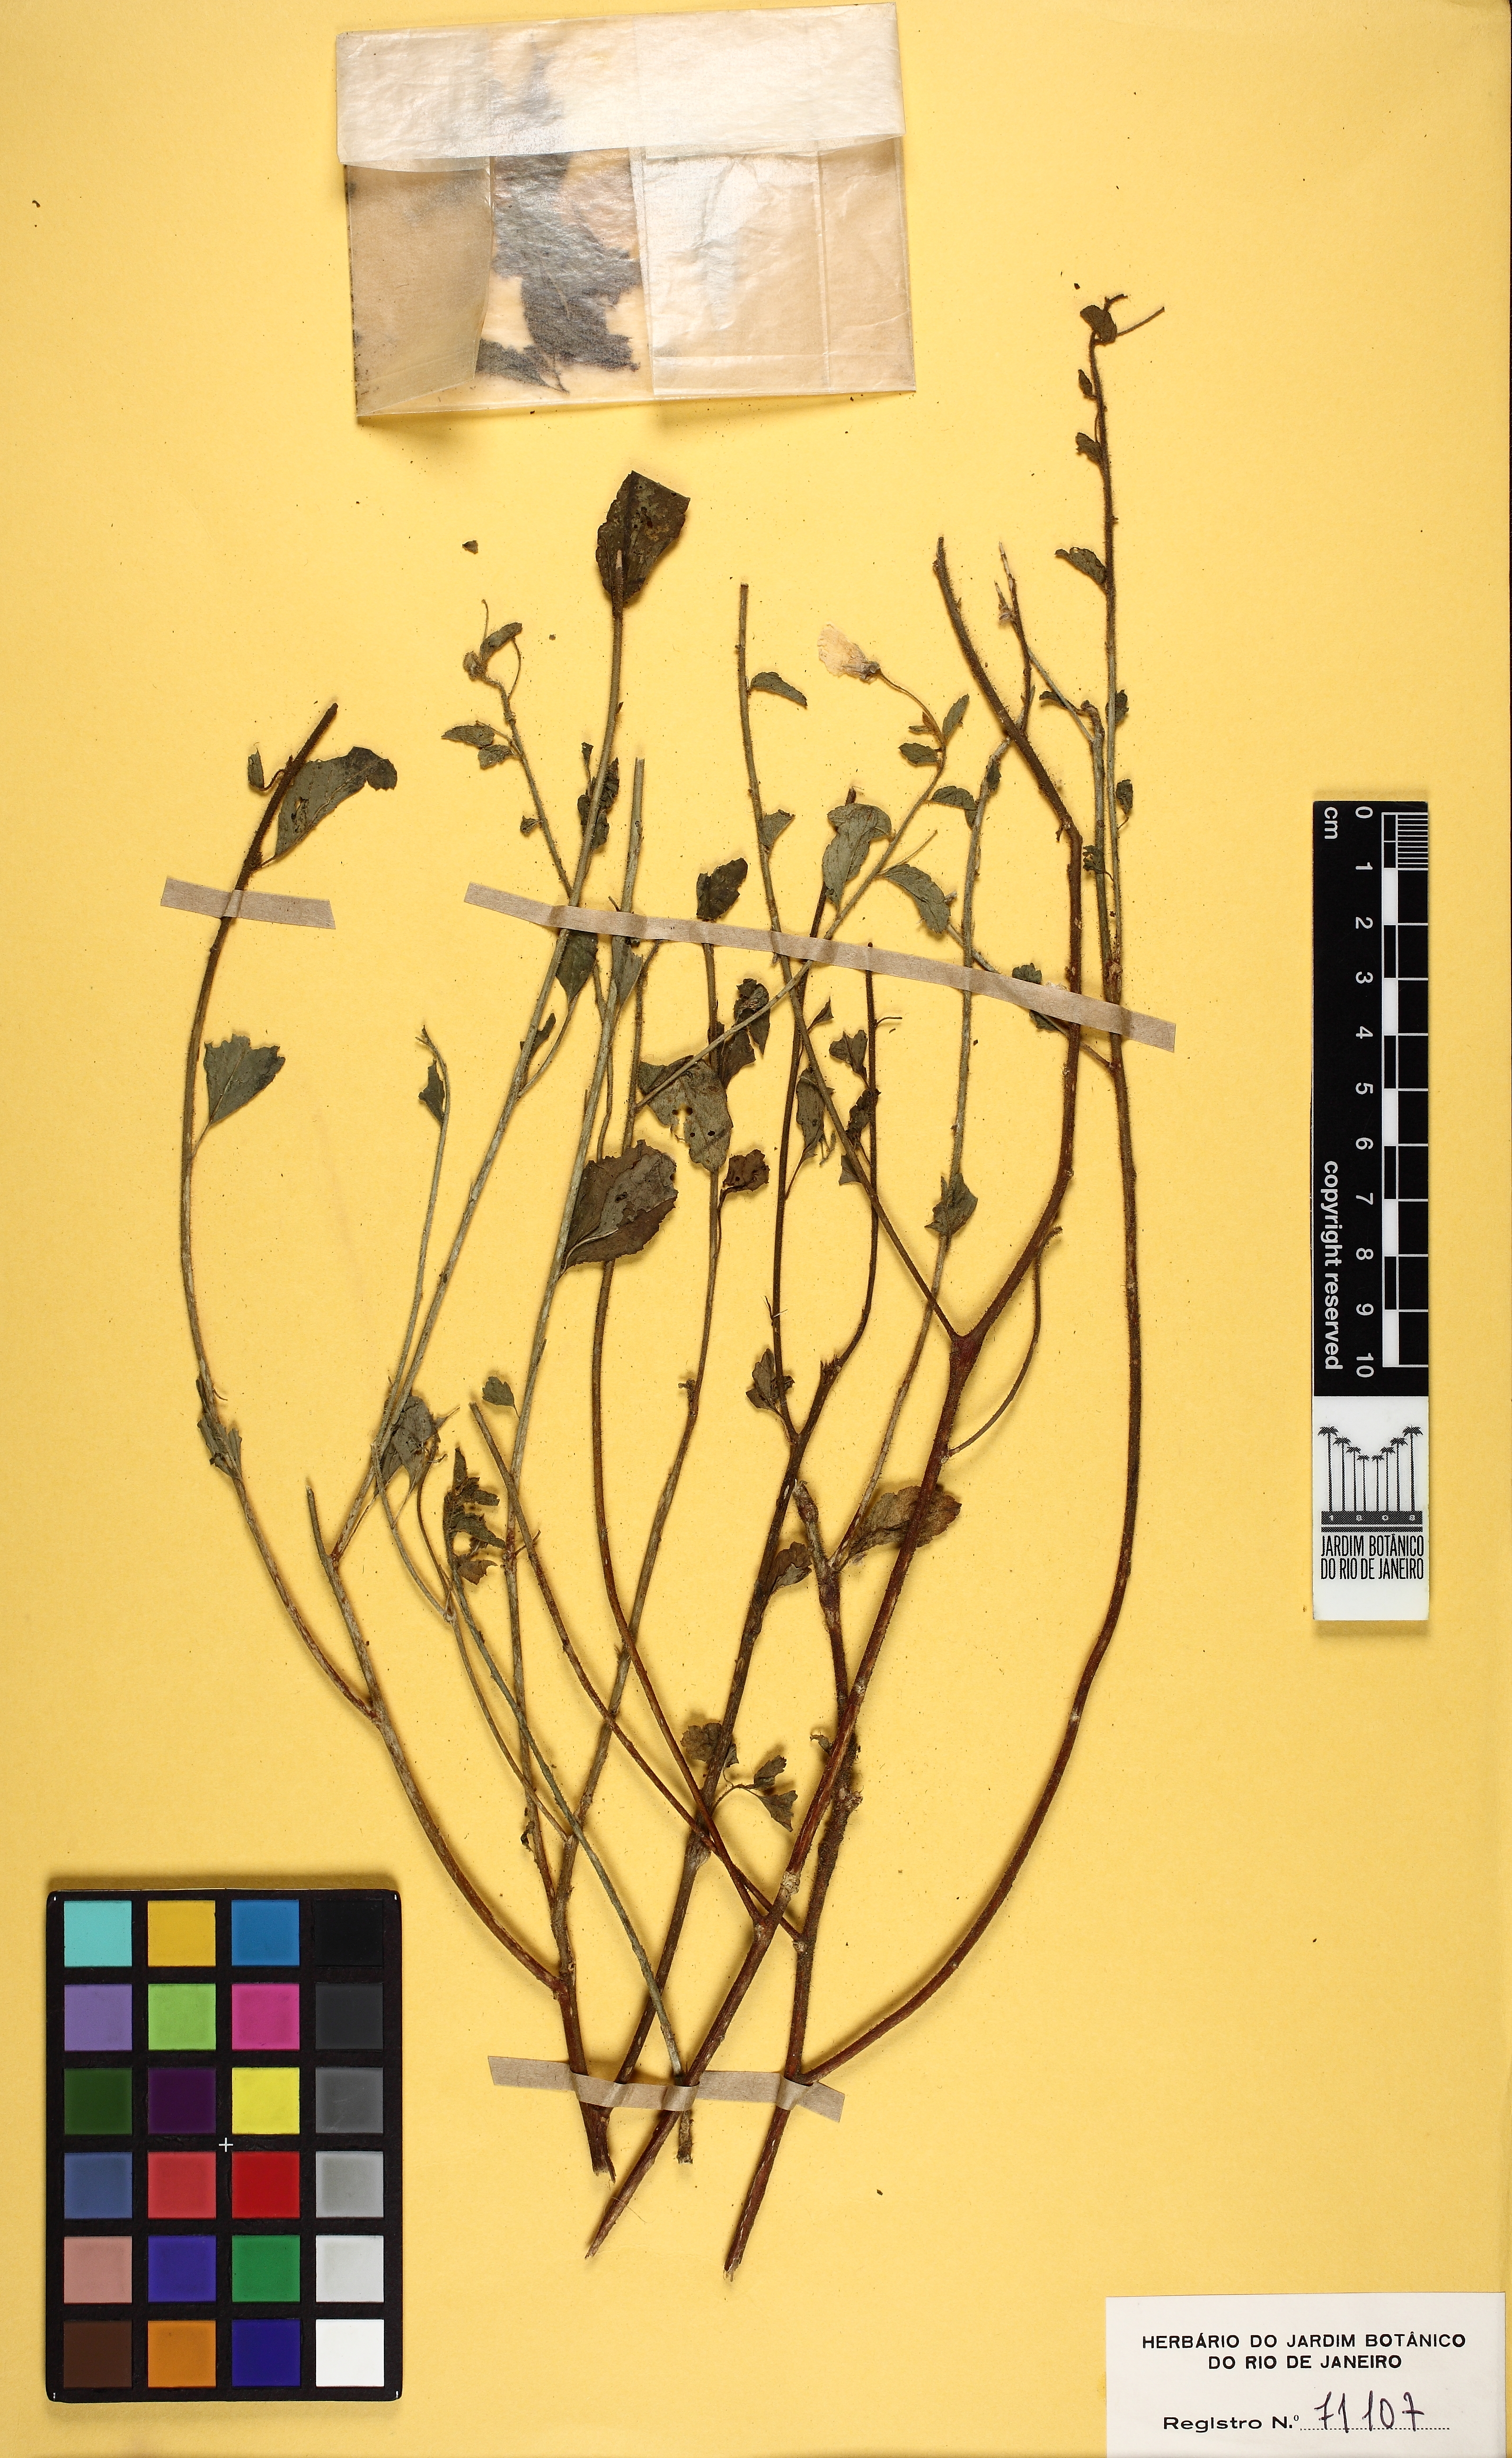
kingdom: Plantae
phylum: Tracheophyta
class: Magnoliopsida
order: Malpighiales
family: Turneraceae
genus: Piriqueta
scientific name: Piriqueta guianensis
